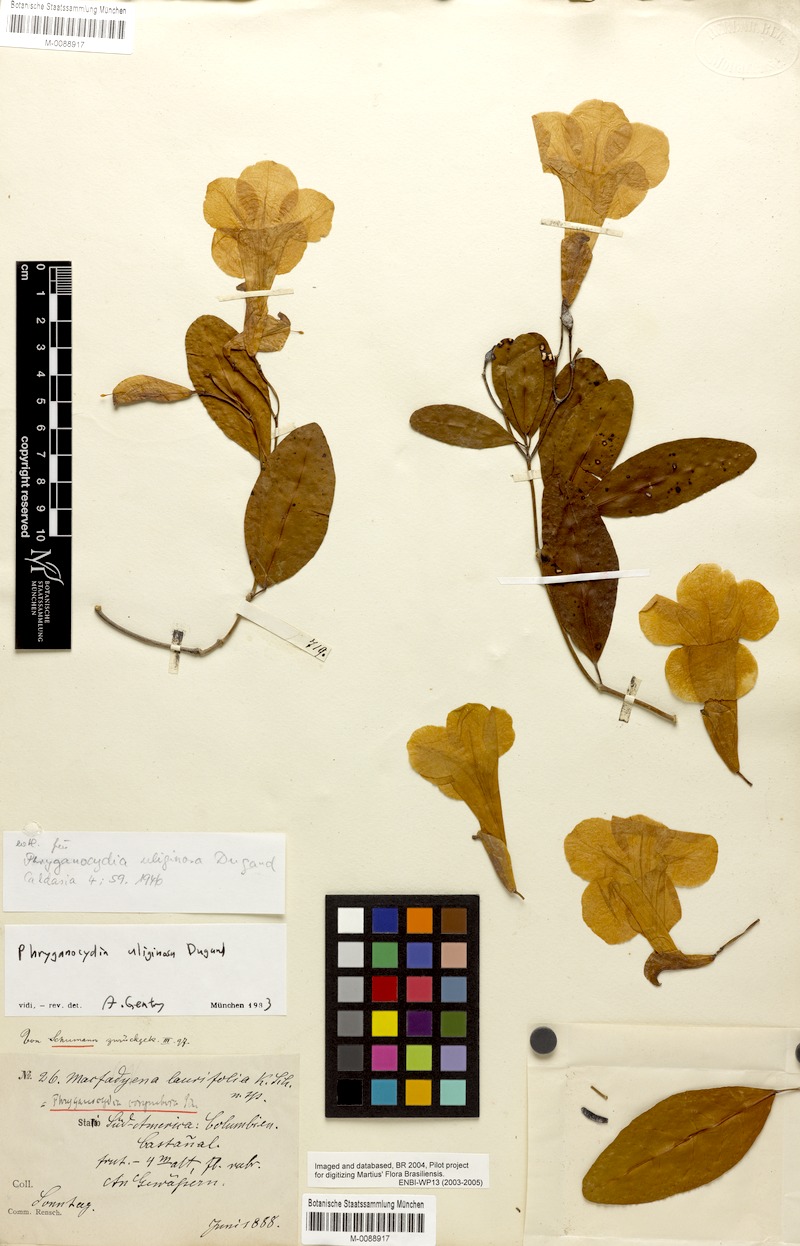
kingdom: Plantae
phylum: Tracheophyta
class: Magnoliopsida
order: Lamiales
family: Bignoniaceae
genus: Bignonia
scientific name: Bignonia neouliginosa
